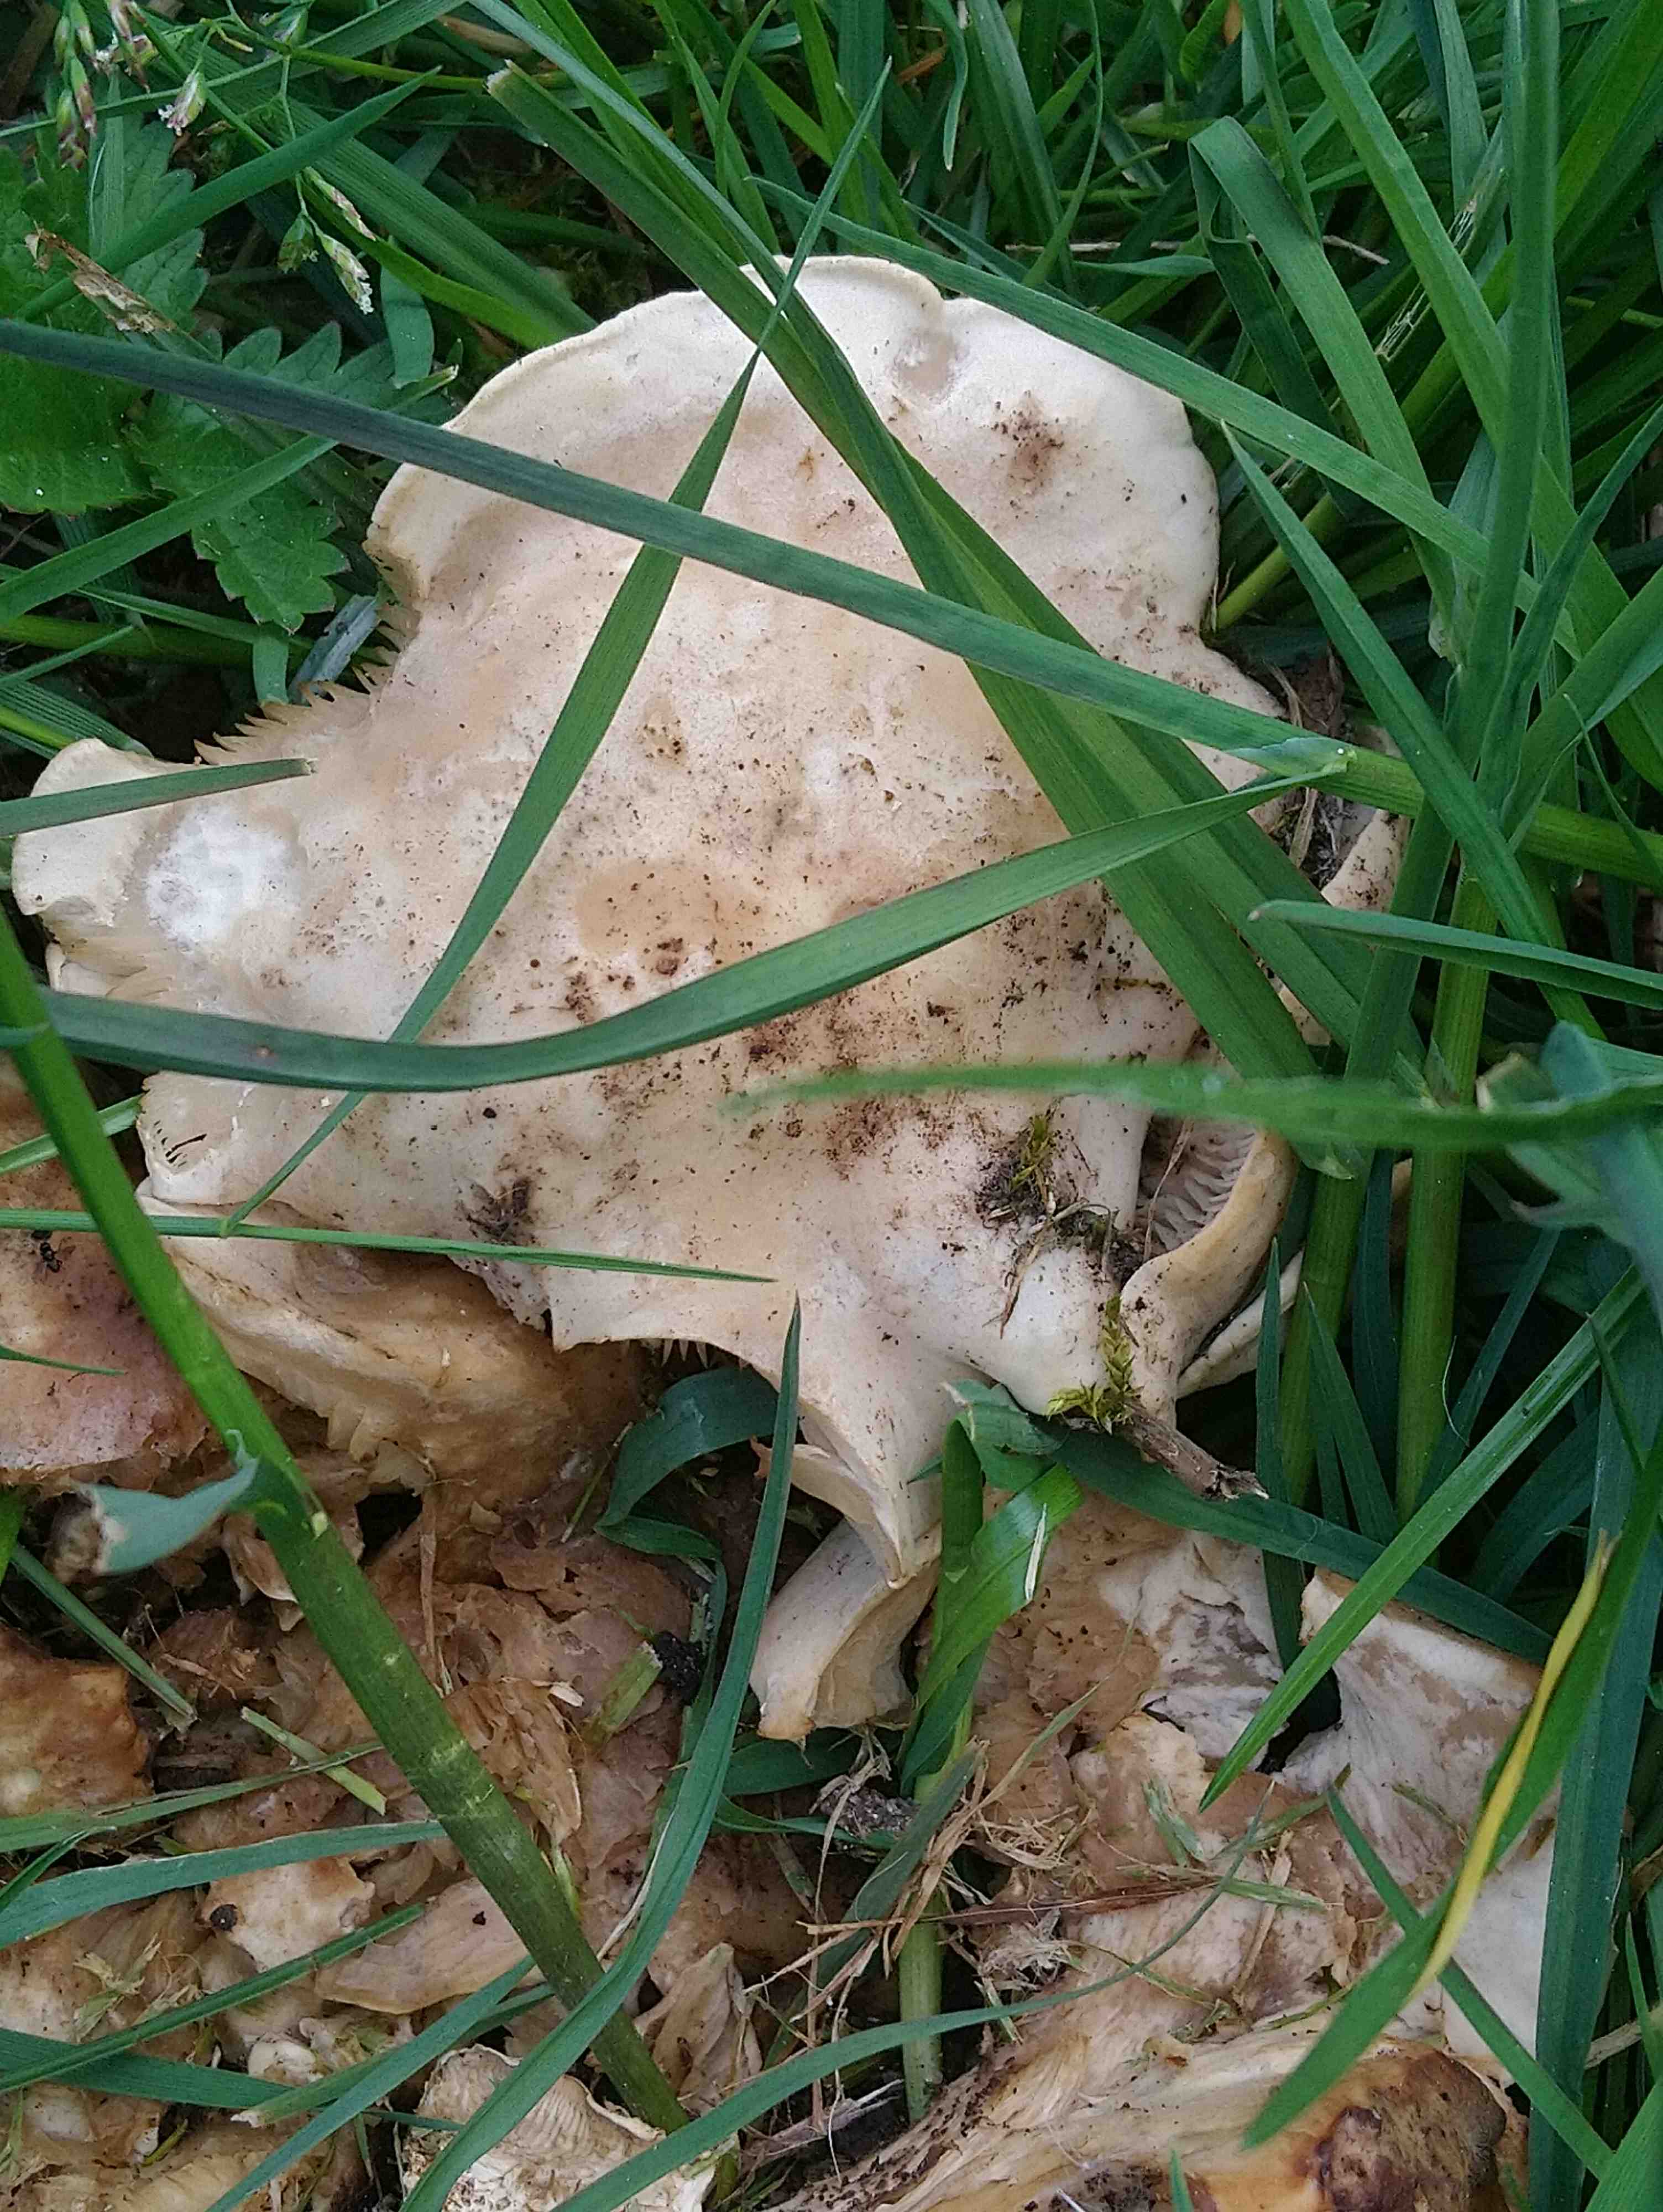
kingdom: Fungi
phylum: Basidiomycota
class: Agaricomycetes
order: Agaricales
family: Lyophyllaceae
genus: Calocybe
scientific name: Calocybe gambosa
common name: vårmusseron
